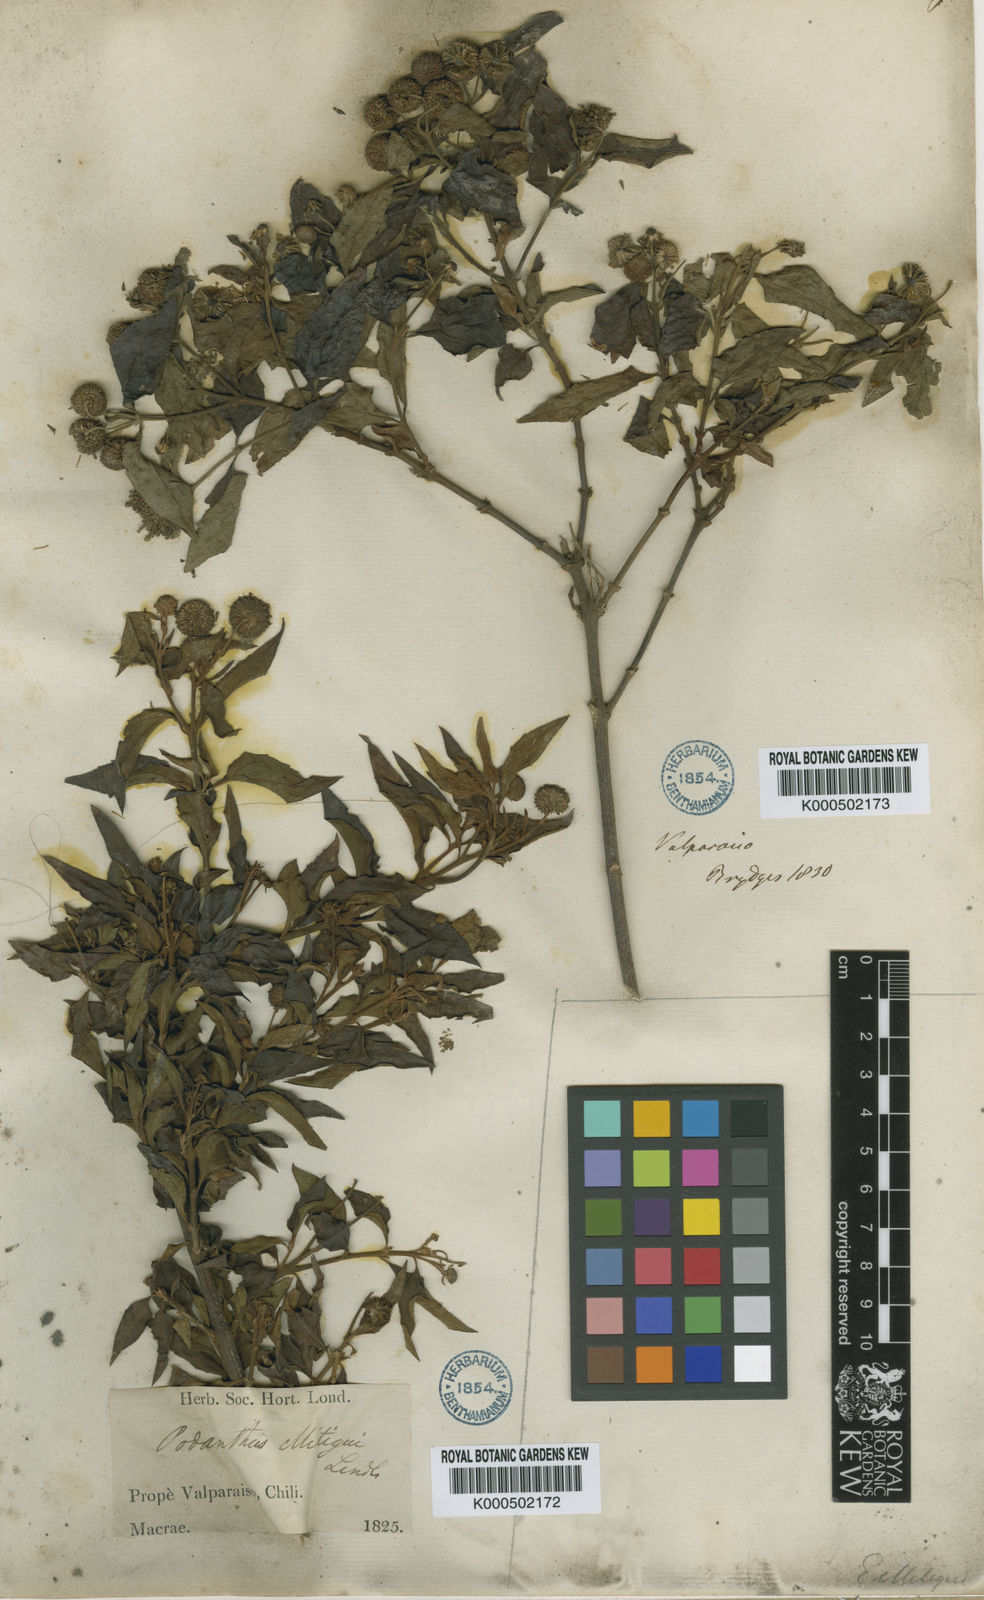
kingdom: Plantae
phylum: Tracheophyta
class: Magnoliopsida
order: Asterales
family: Asteraceae
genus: Podanthus
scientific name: Podanthus mitiqui
